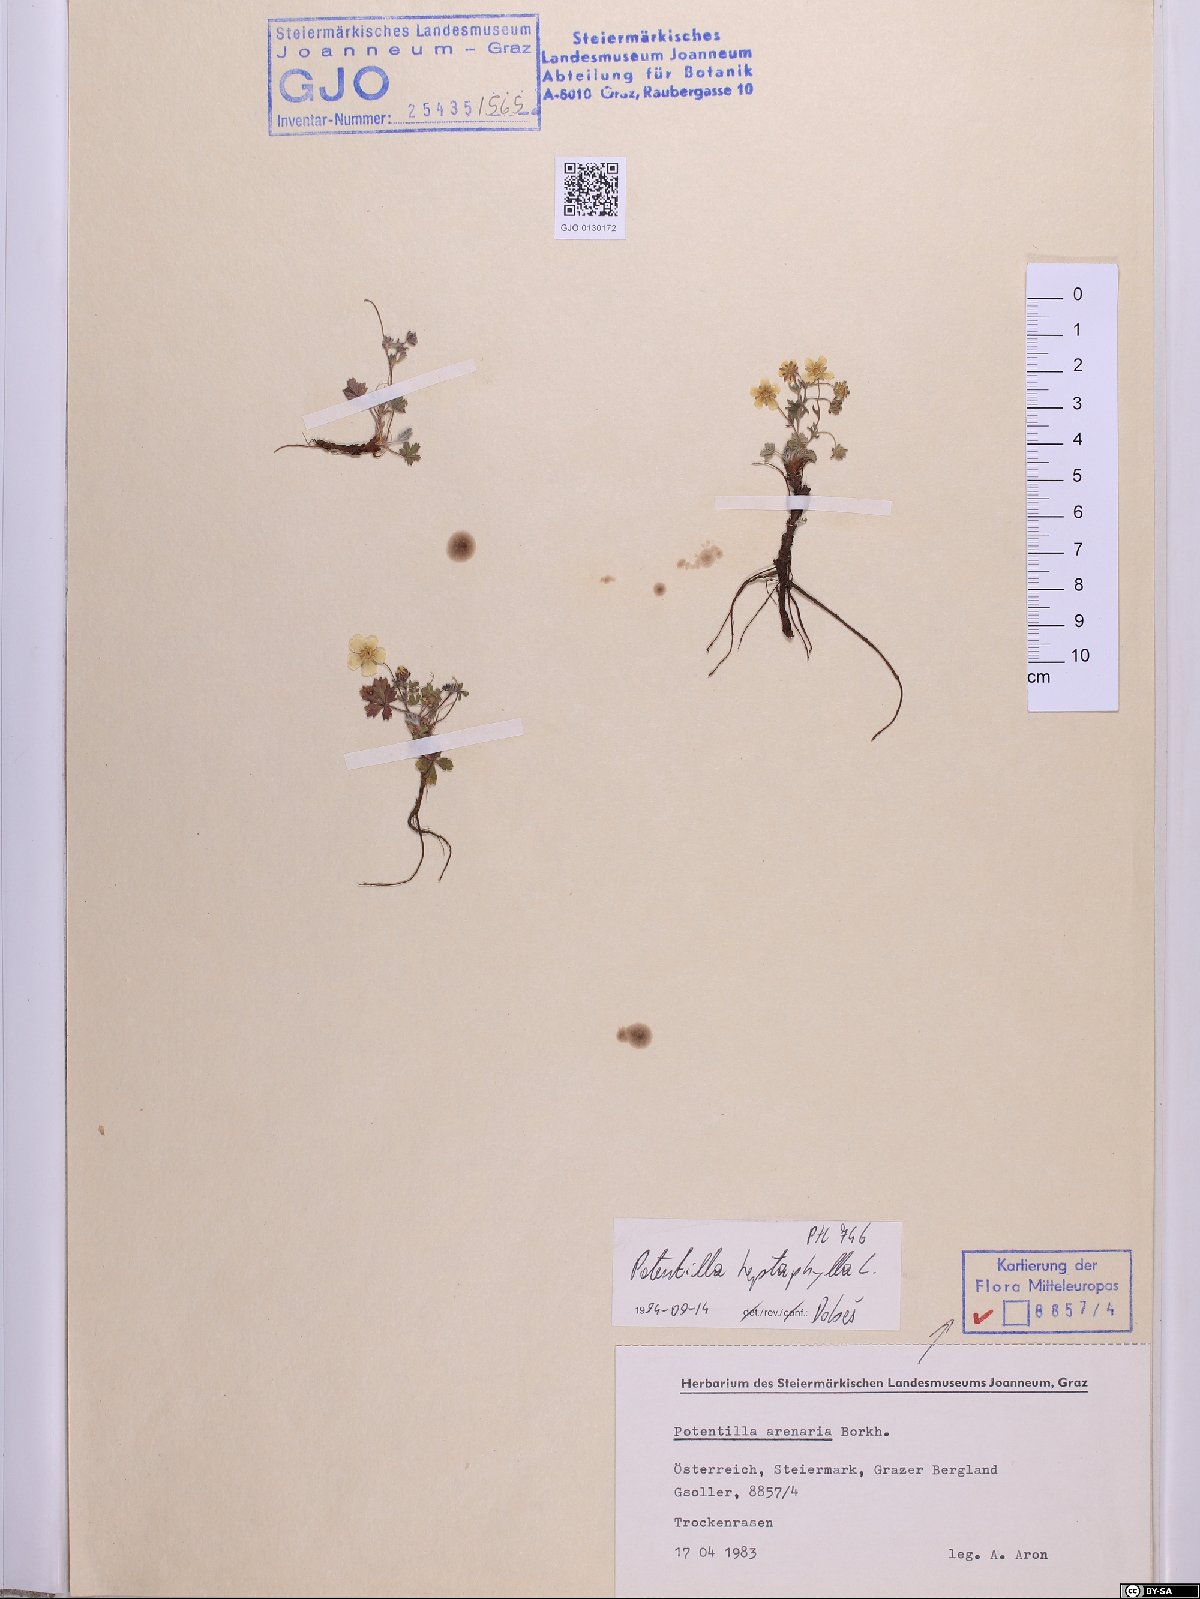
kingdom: Plantae
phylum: Tracheophyta
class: Magnoliopsida
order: Rosales
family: Rosaceae
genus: Potentilla
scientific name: Potentilla heptaphylla
